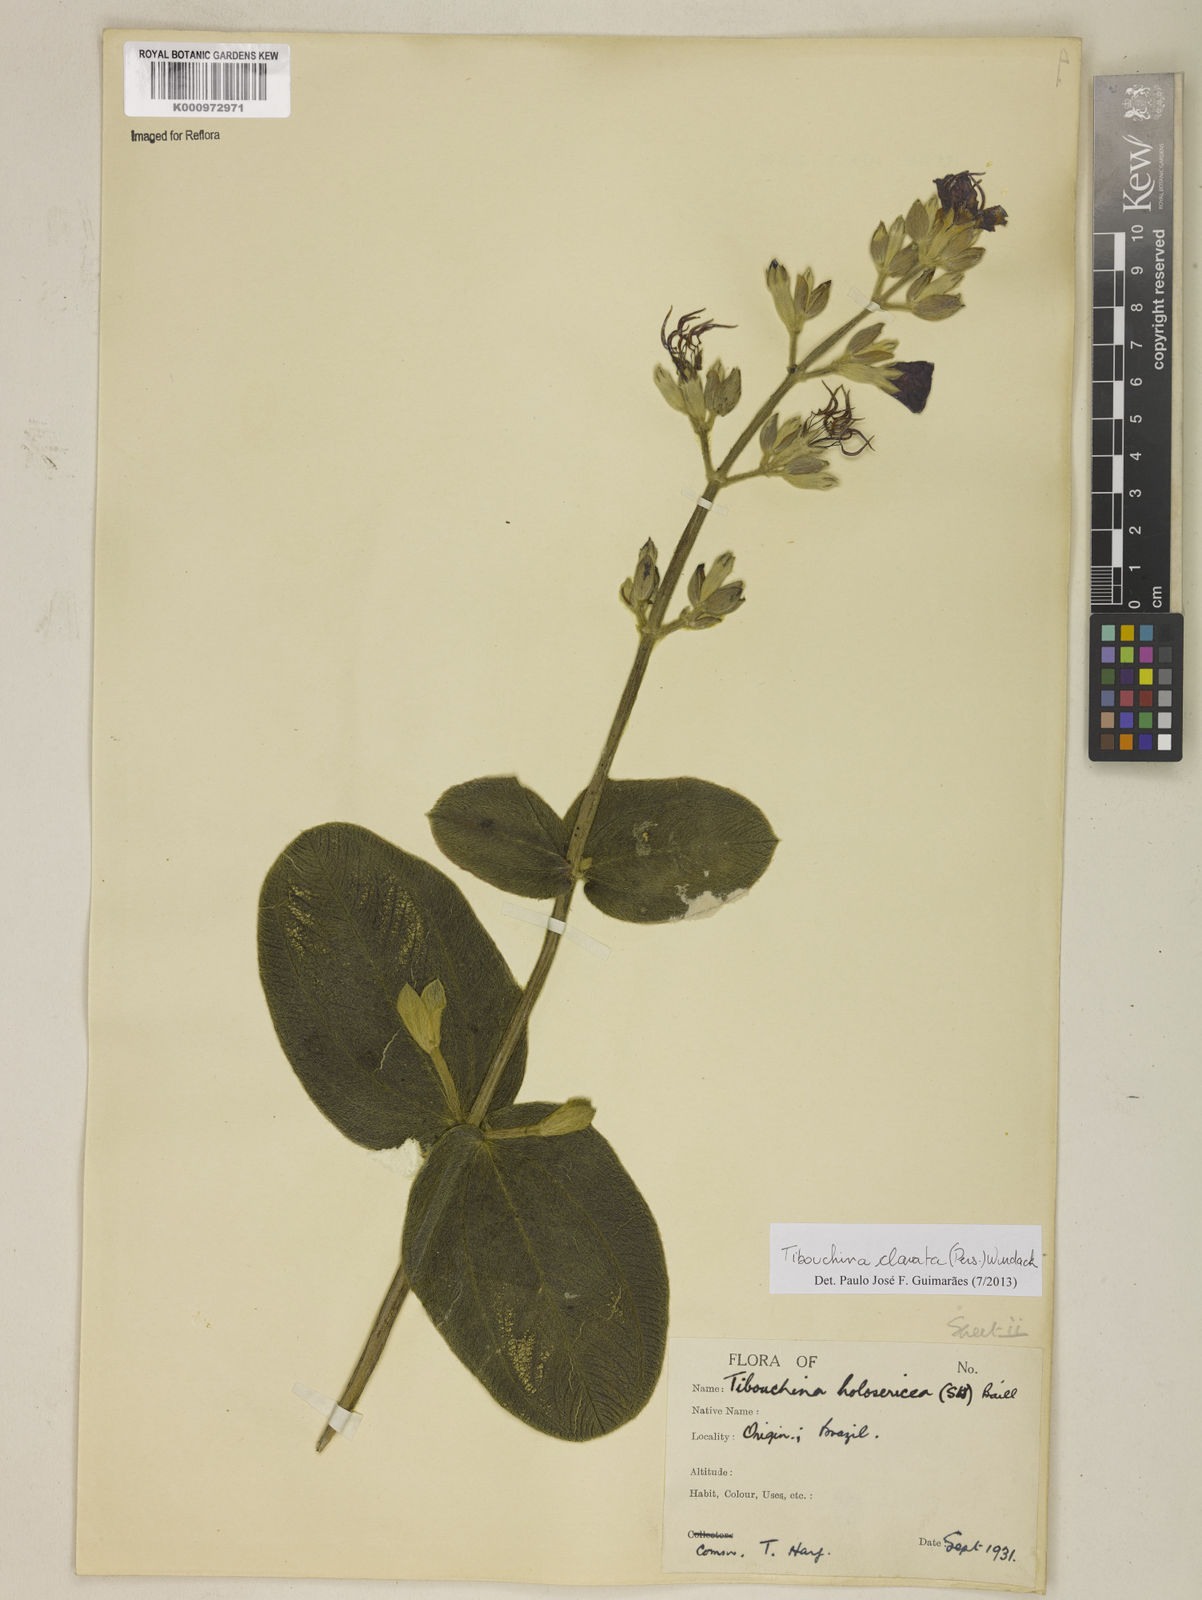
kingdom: Plantae
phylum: Tracheophyta
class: Magnoliopsida
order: Myrtales
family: Melastomataceae
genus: Pleroma
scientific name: Pleroma clavatum
